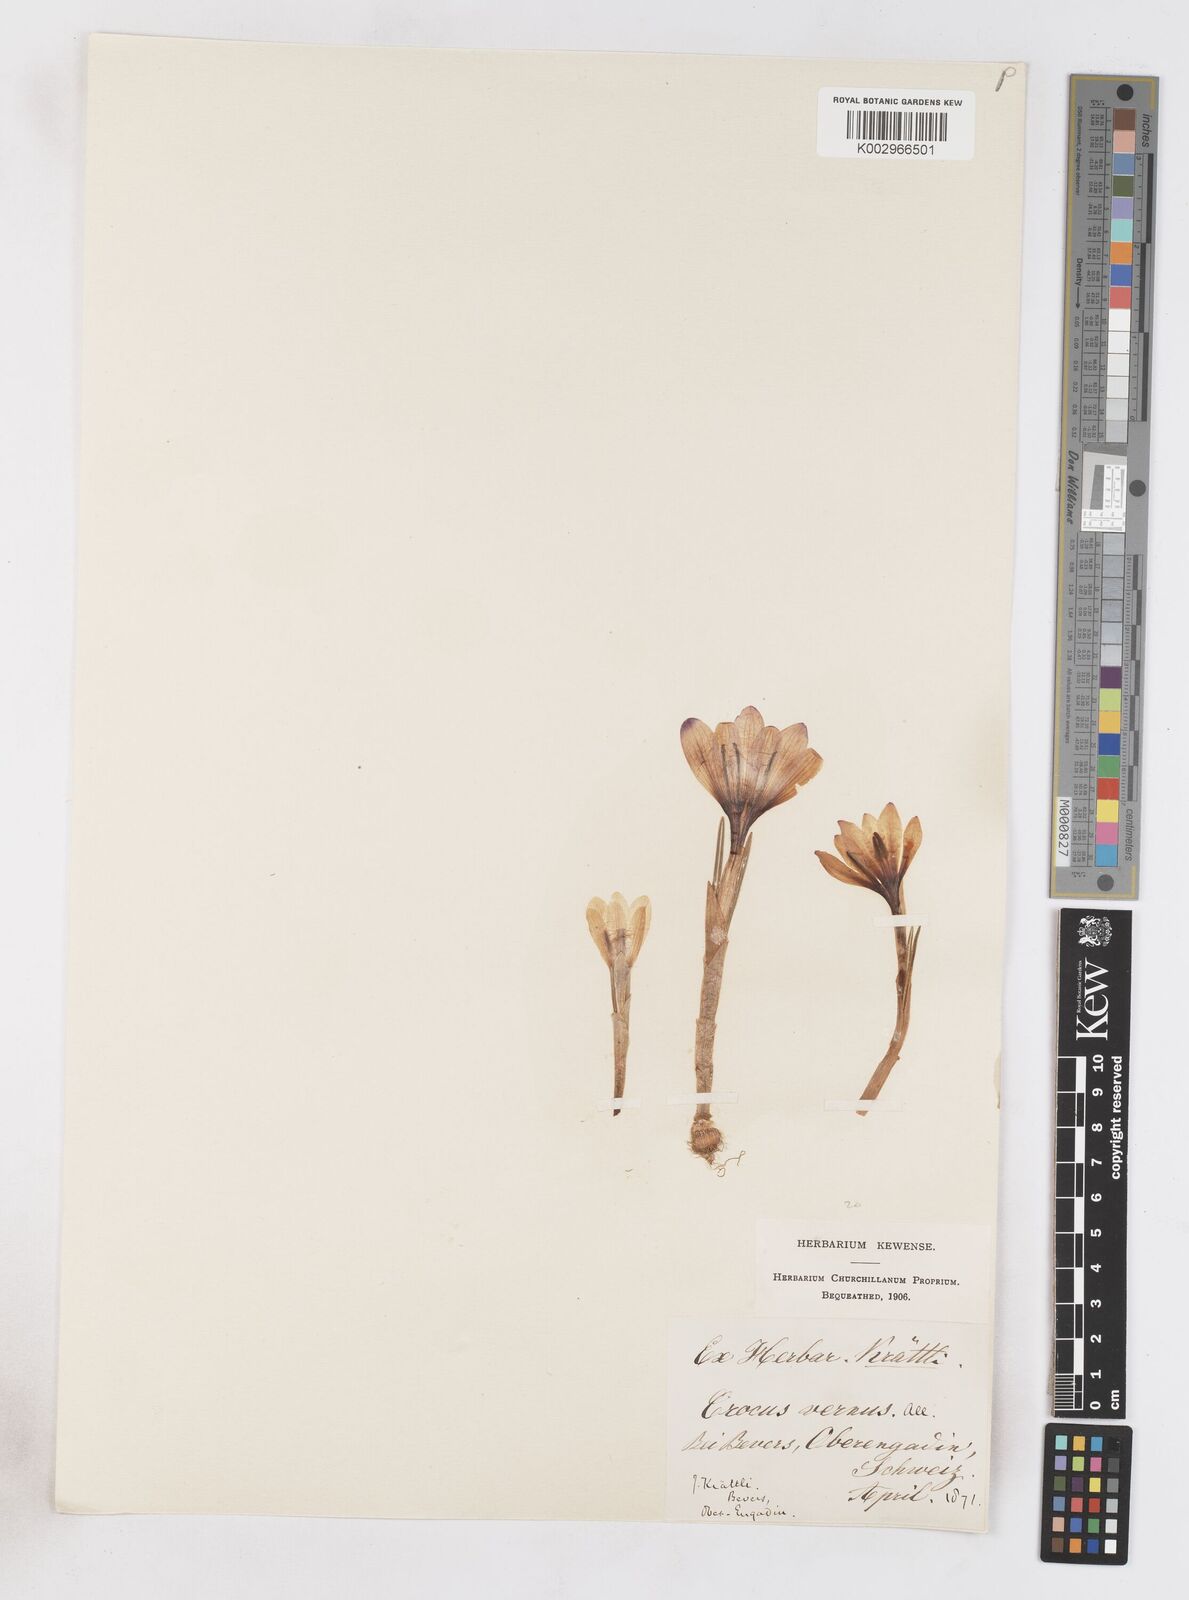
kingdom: Plantae
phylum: Tracheophyta
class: Liliopsida
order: Asparagales
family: Iridaceae
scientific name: Iridaceae
